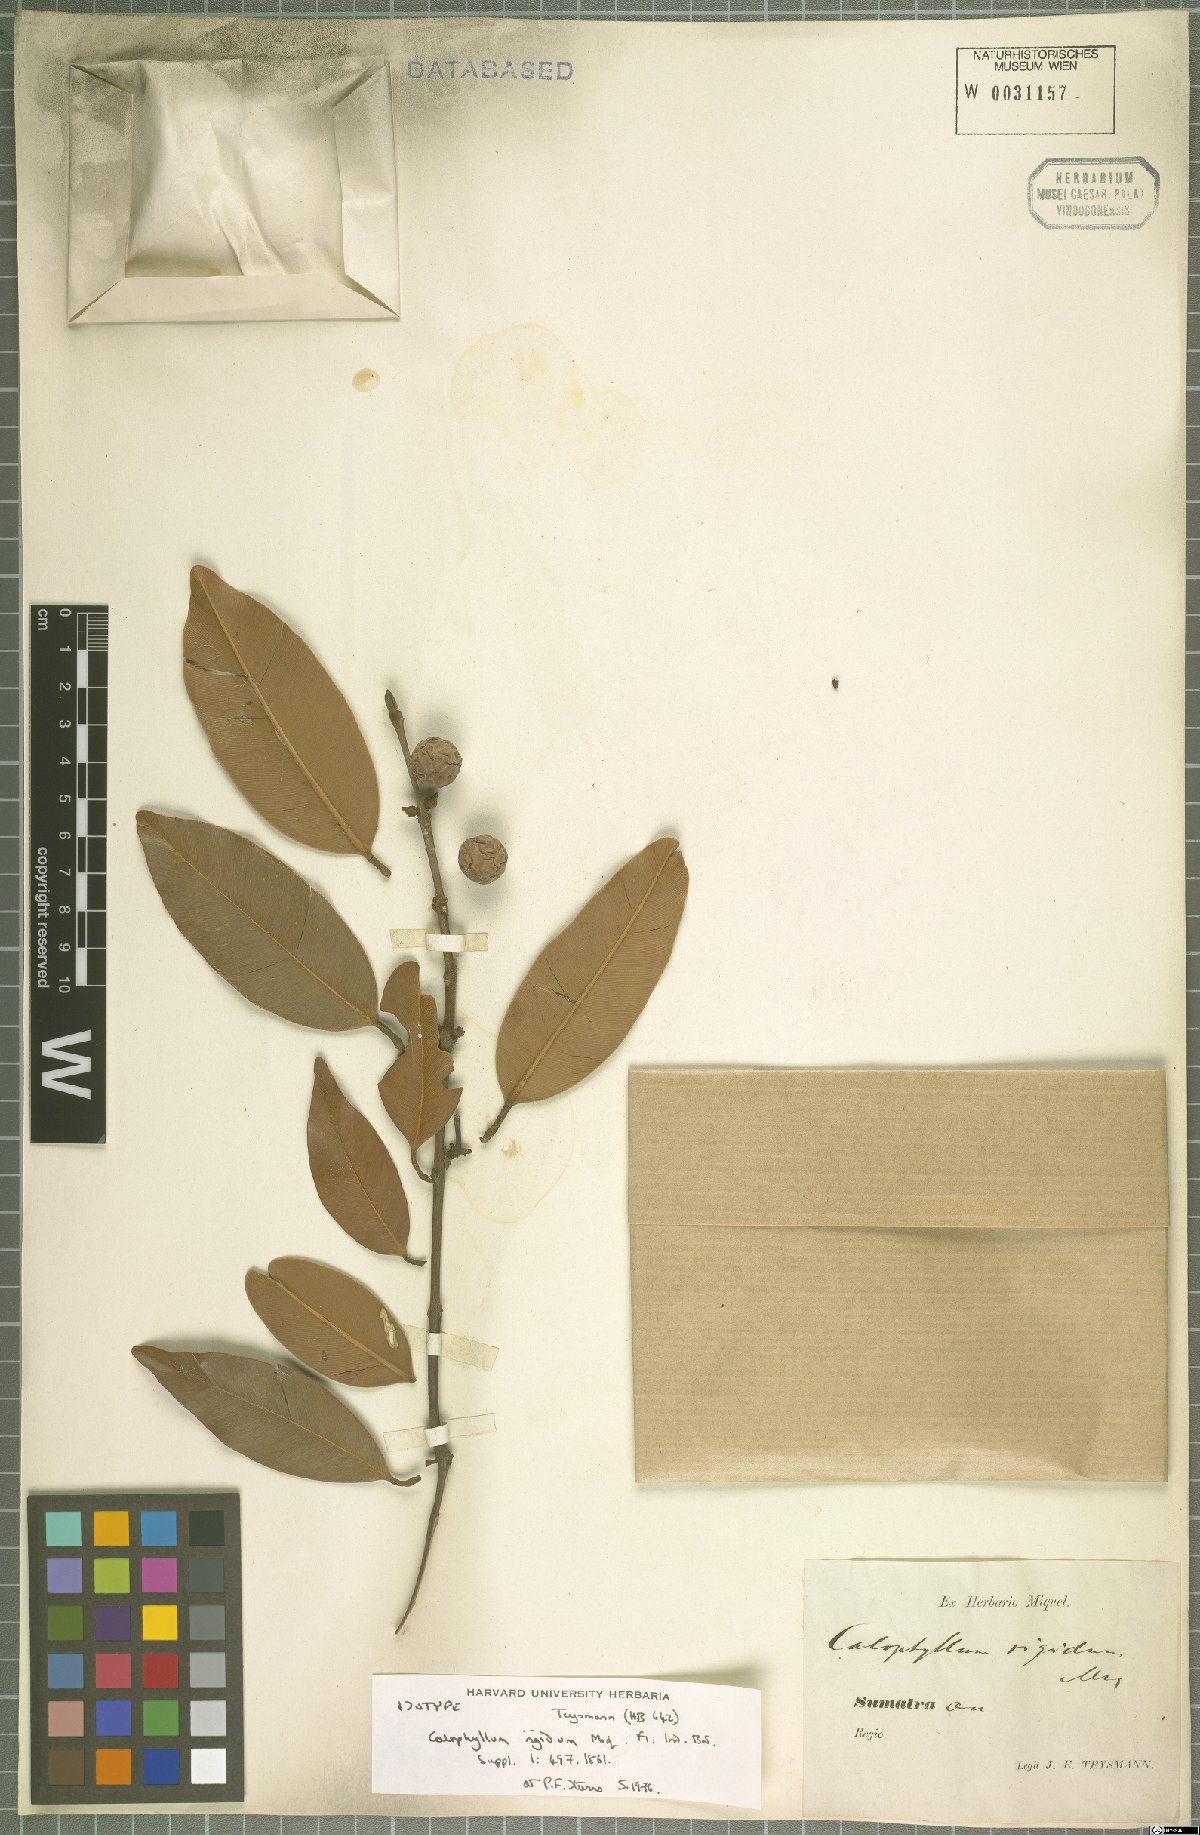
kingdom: Plantae
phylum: Tracheophyta
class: Magnoliopsida
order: Malpighiales
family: Calophyllaceae
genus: Calophyllum
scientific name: Calophyllum rigidum
